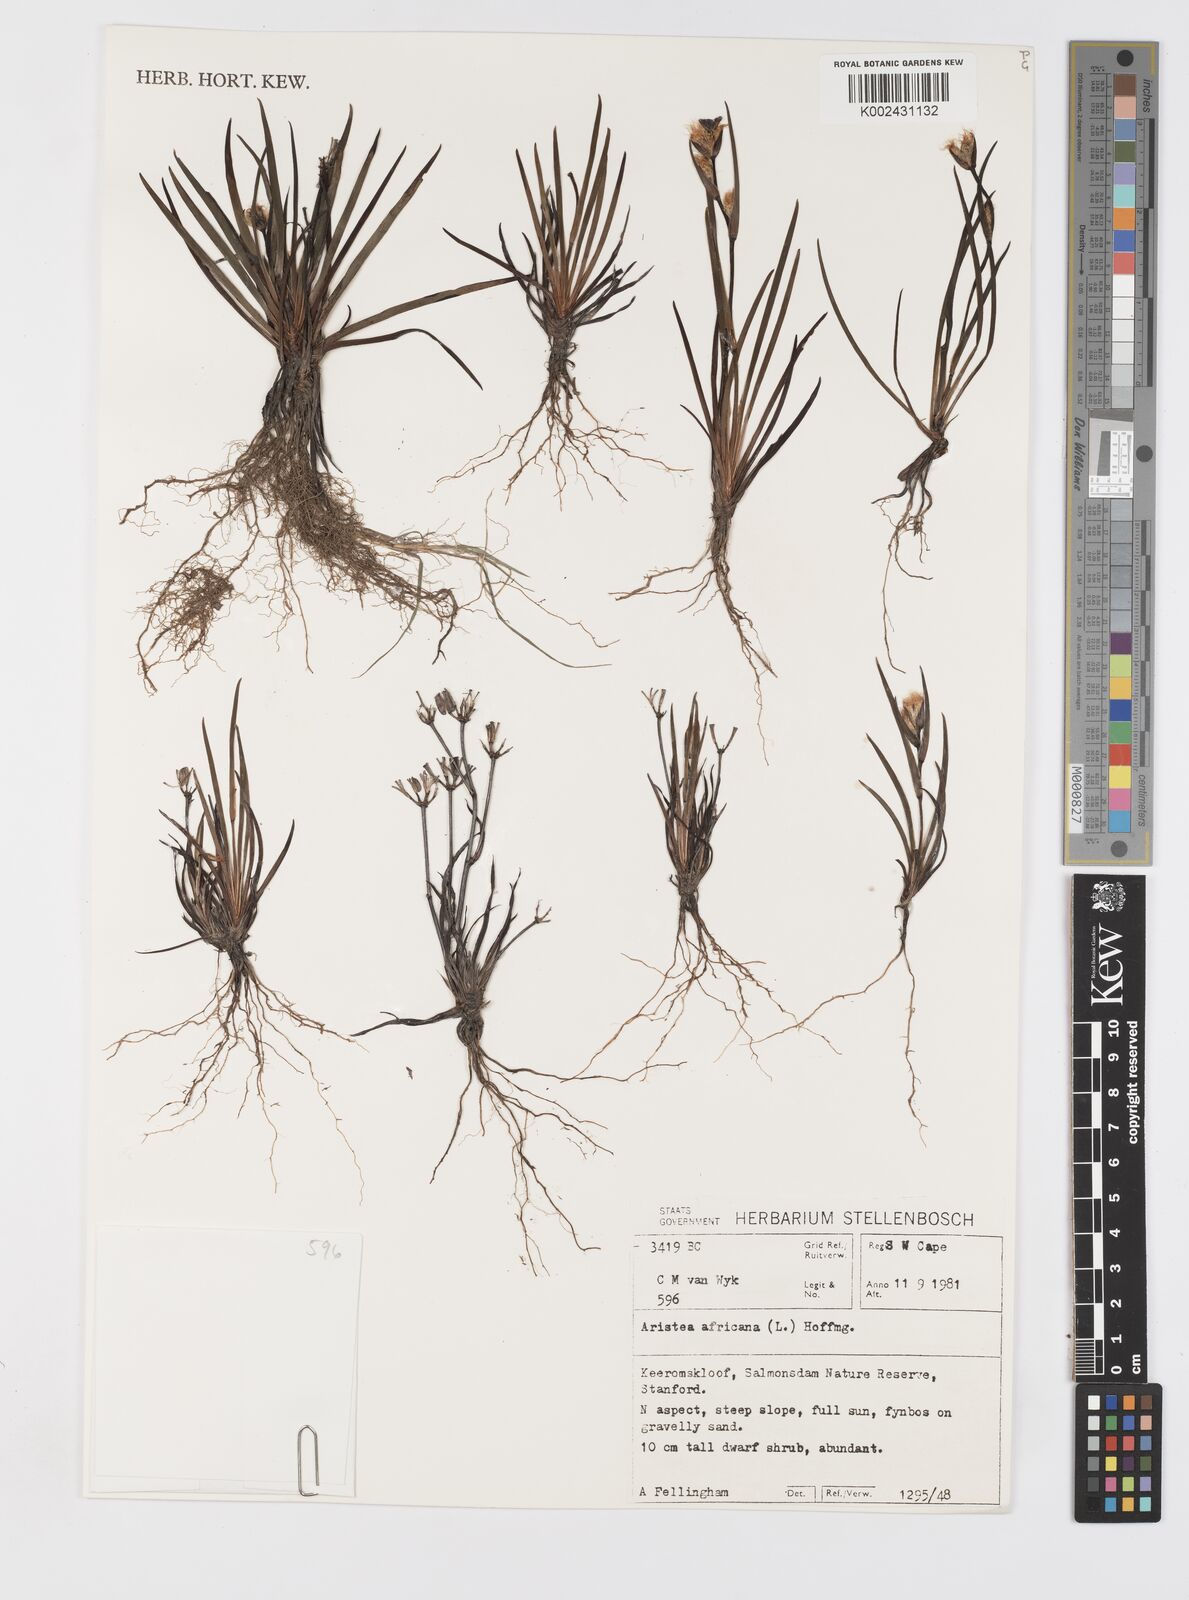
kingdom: Plantae
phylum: Tracheophyta
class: Liliopsida
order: Asparagales
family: Iridaceae
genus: Aristea
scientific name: Aristea africana
